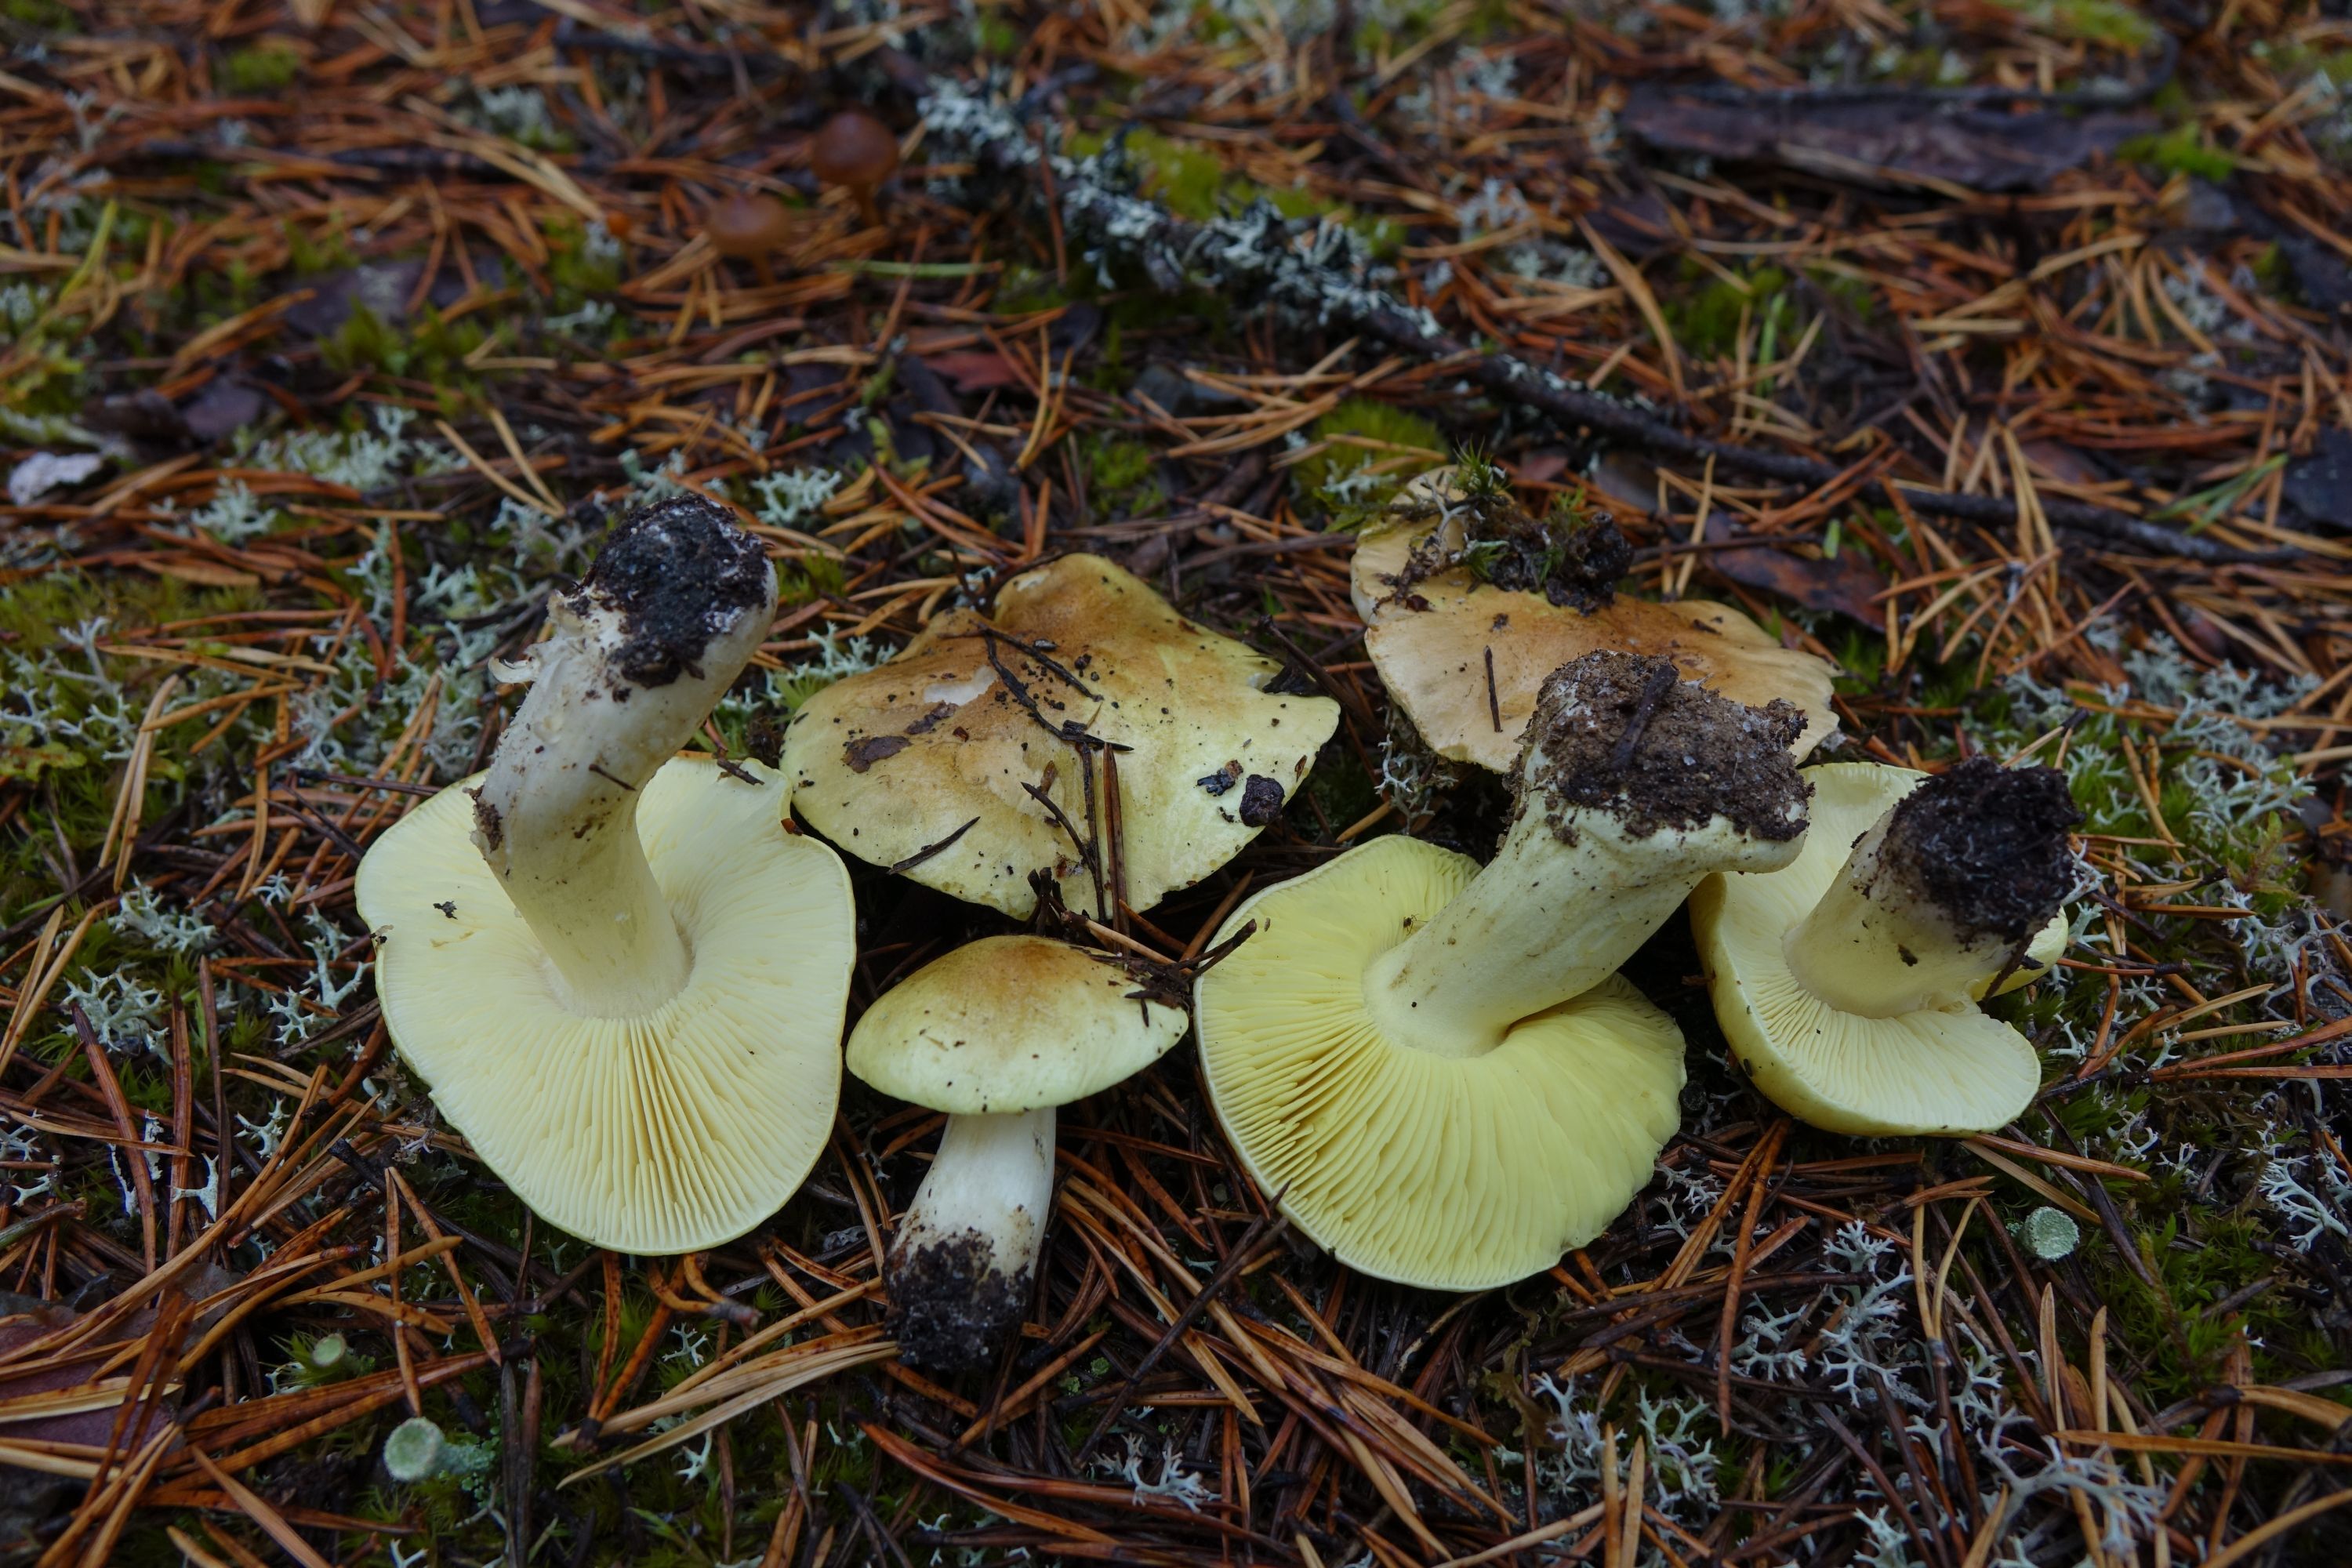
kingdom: Fungi
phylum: Basidiomycota
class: Agaricomycetes
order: Agaricales
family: Tricholomataceae
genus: Tricholoma
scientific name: Tricholoma equestre
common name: Yellow knight
